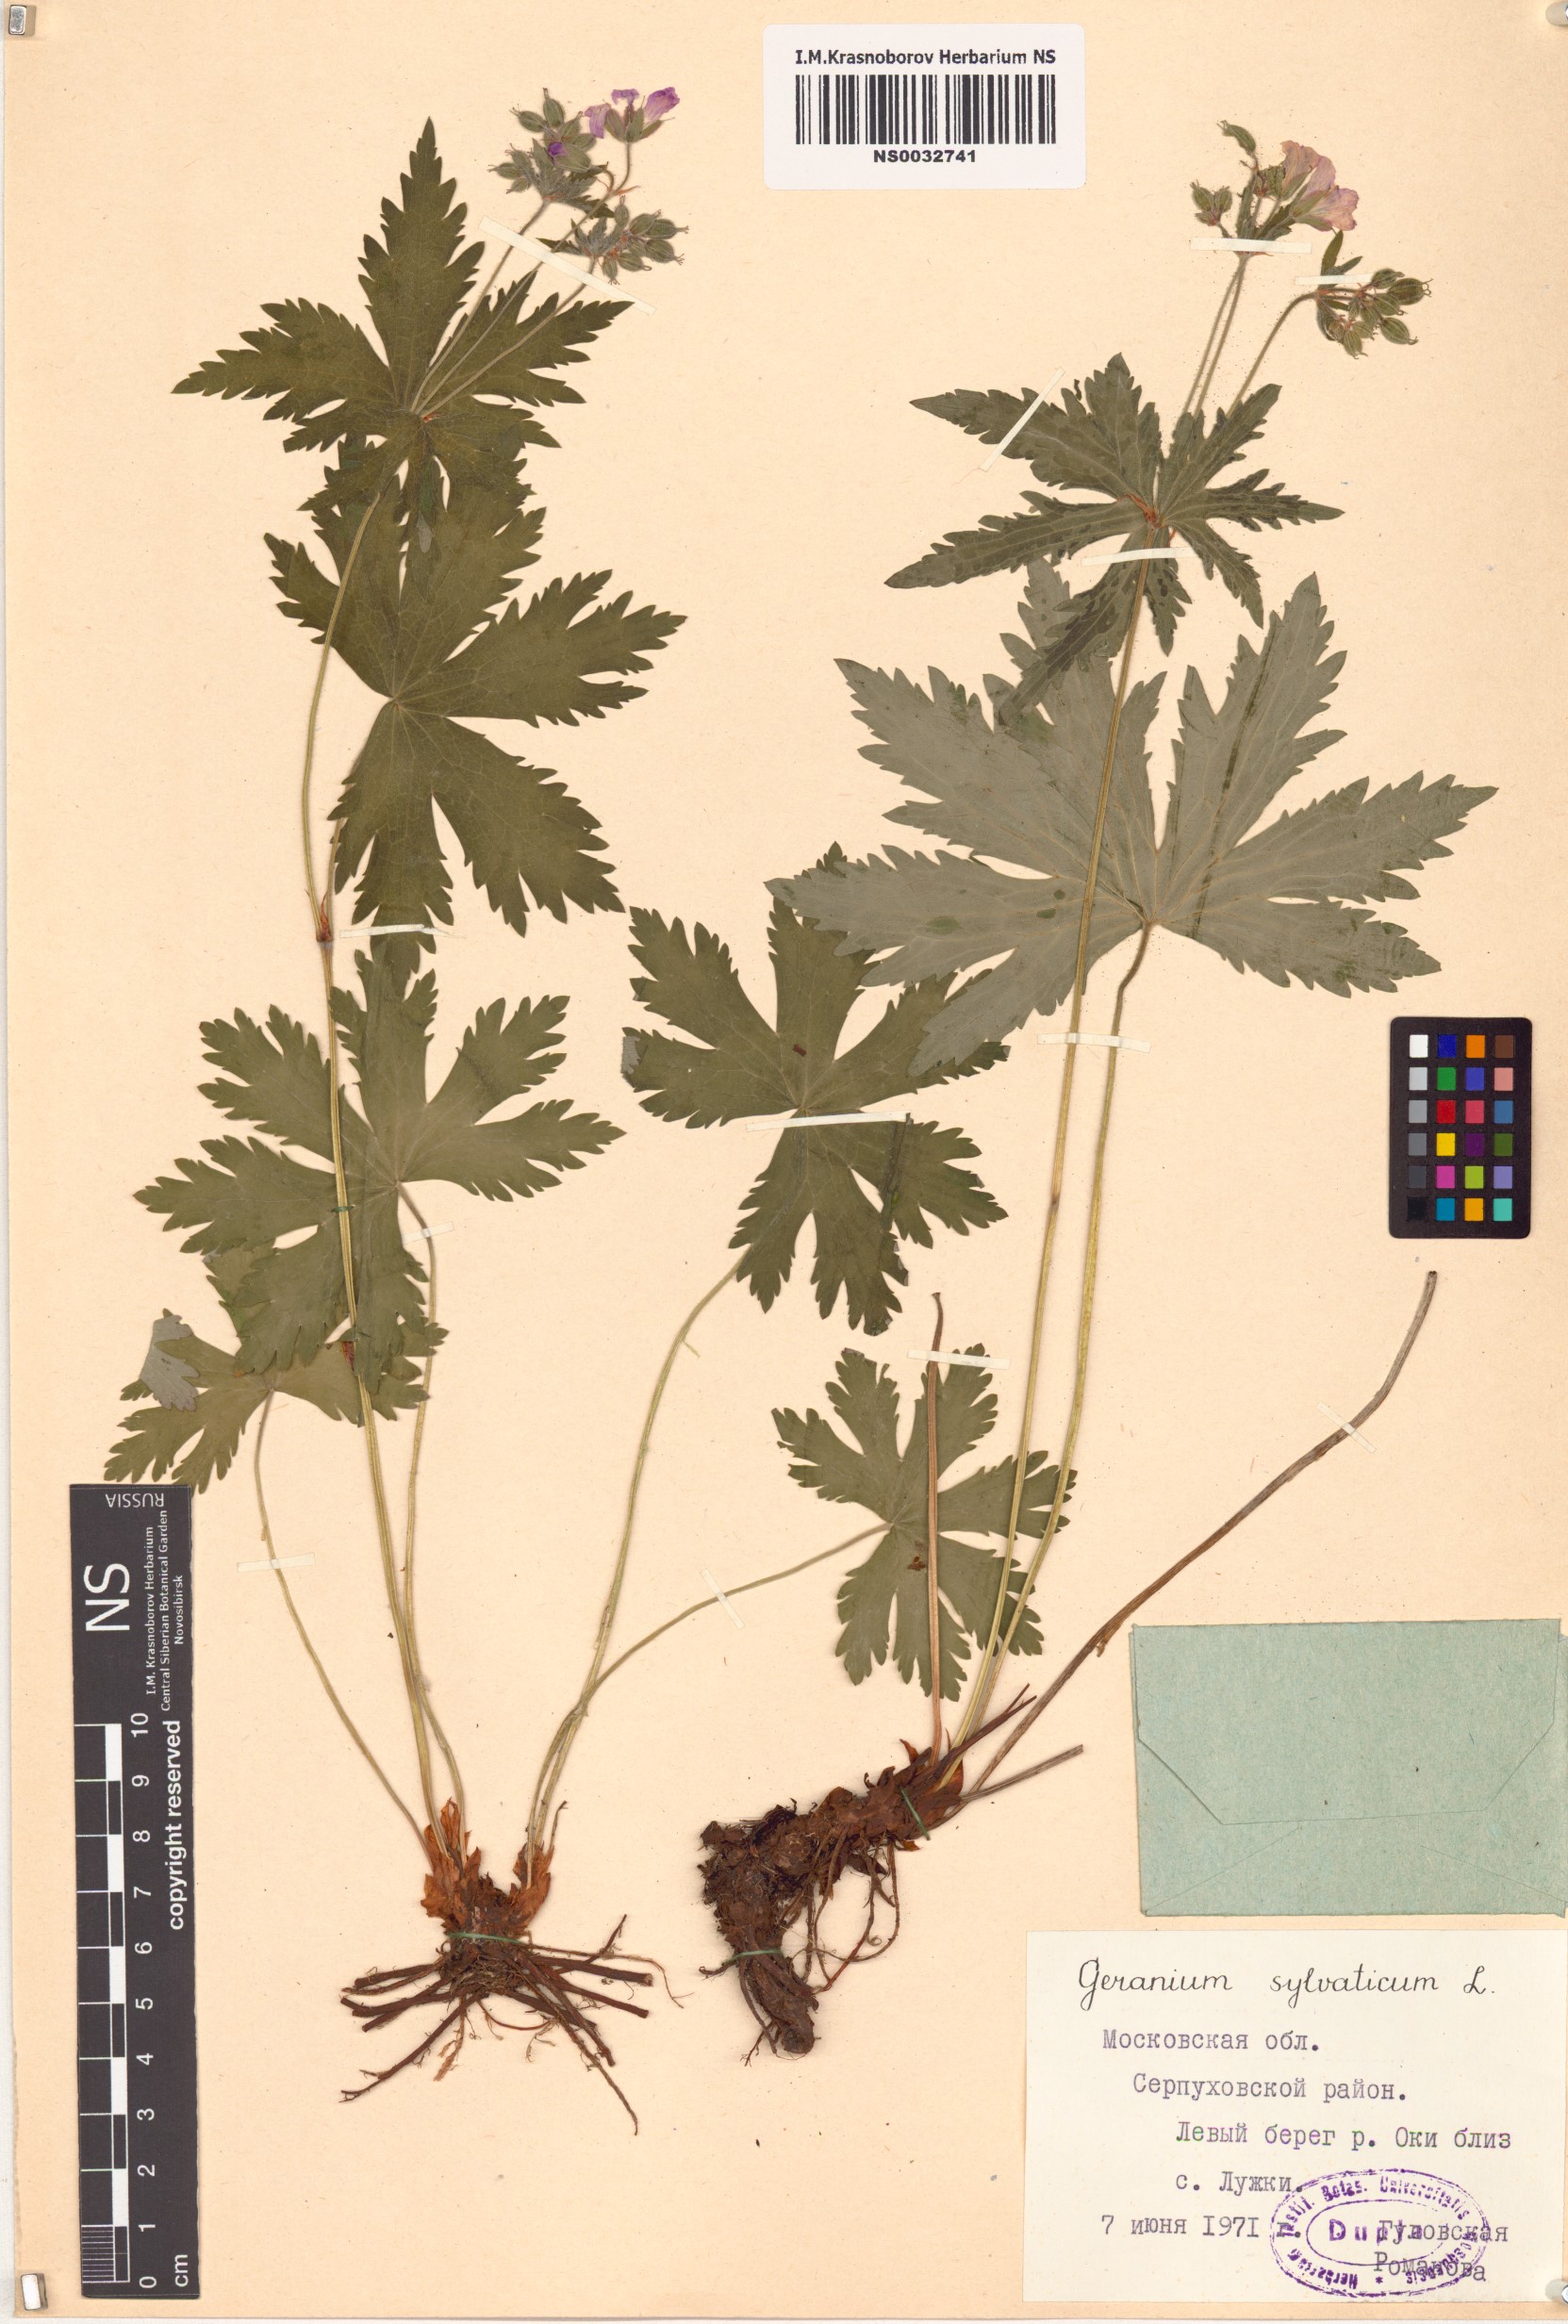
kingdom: Plantae
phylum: Tracheophyta
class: Magnoliopsida
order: Geraniales
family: Geraniaceae
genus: Geranium
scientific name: Geranium sylvaticum
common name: Wood crane's-bill
